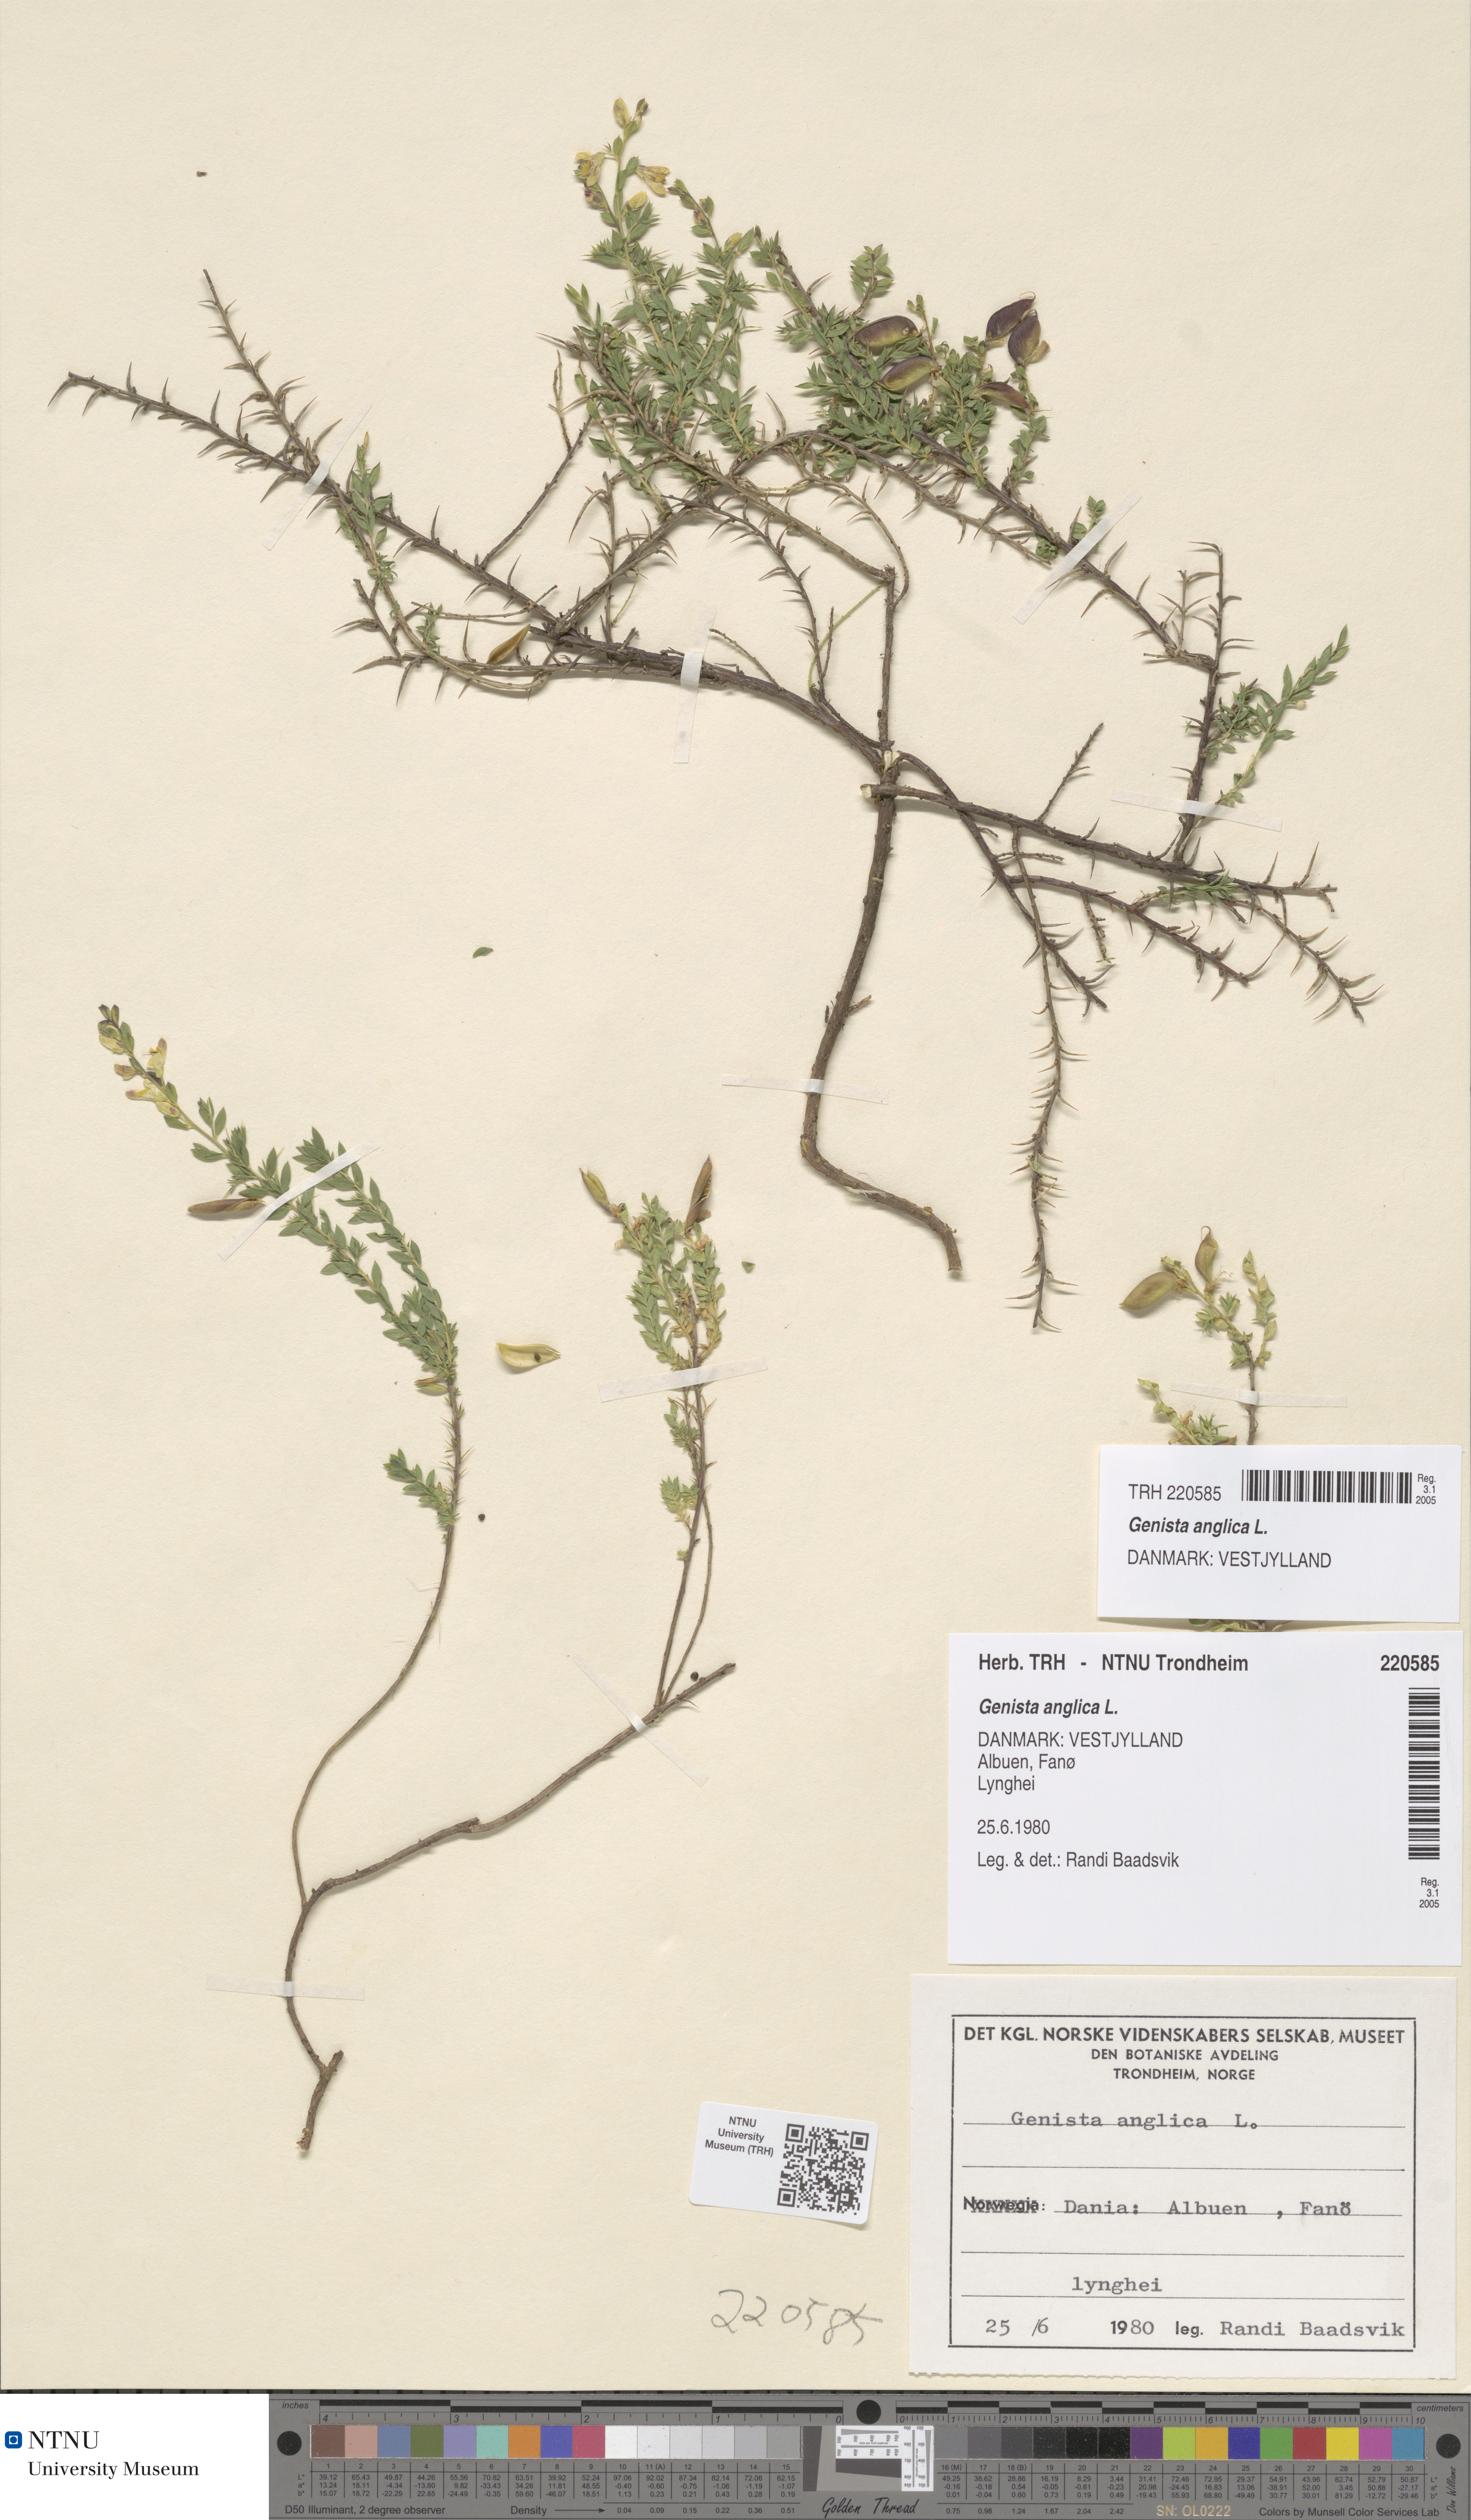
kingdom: Plantae
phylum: Tracheophyta
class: Magnoliopsida
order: Fabales
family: Fabaceae
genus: Genista
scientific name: Genista anglica
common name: Petty whin
